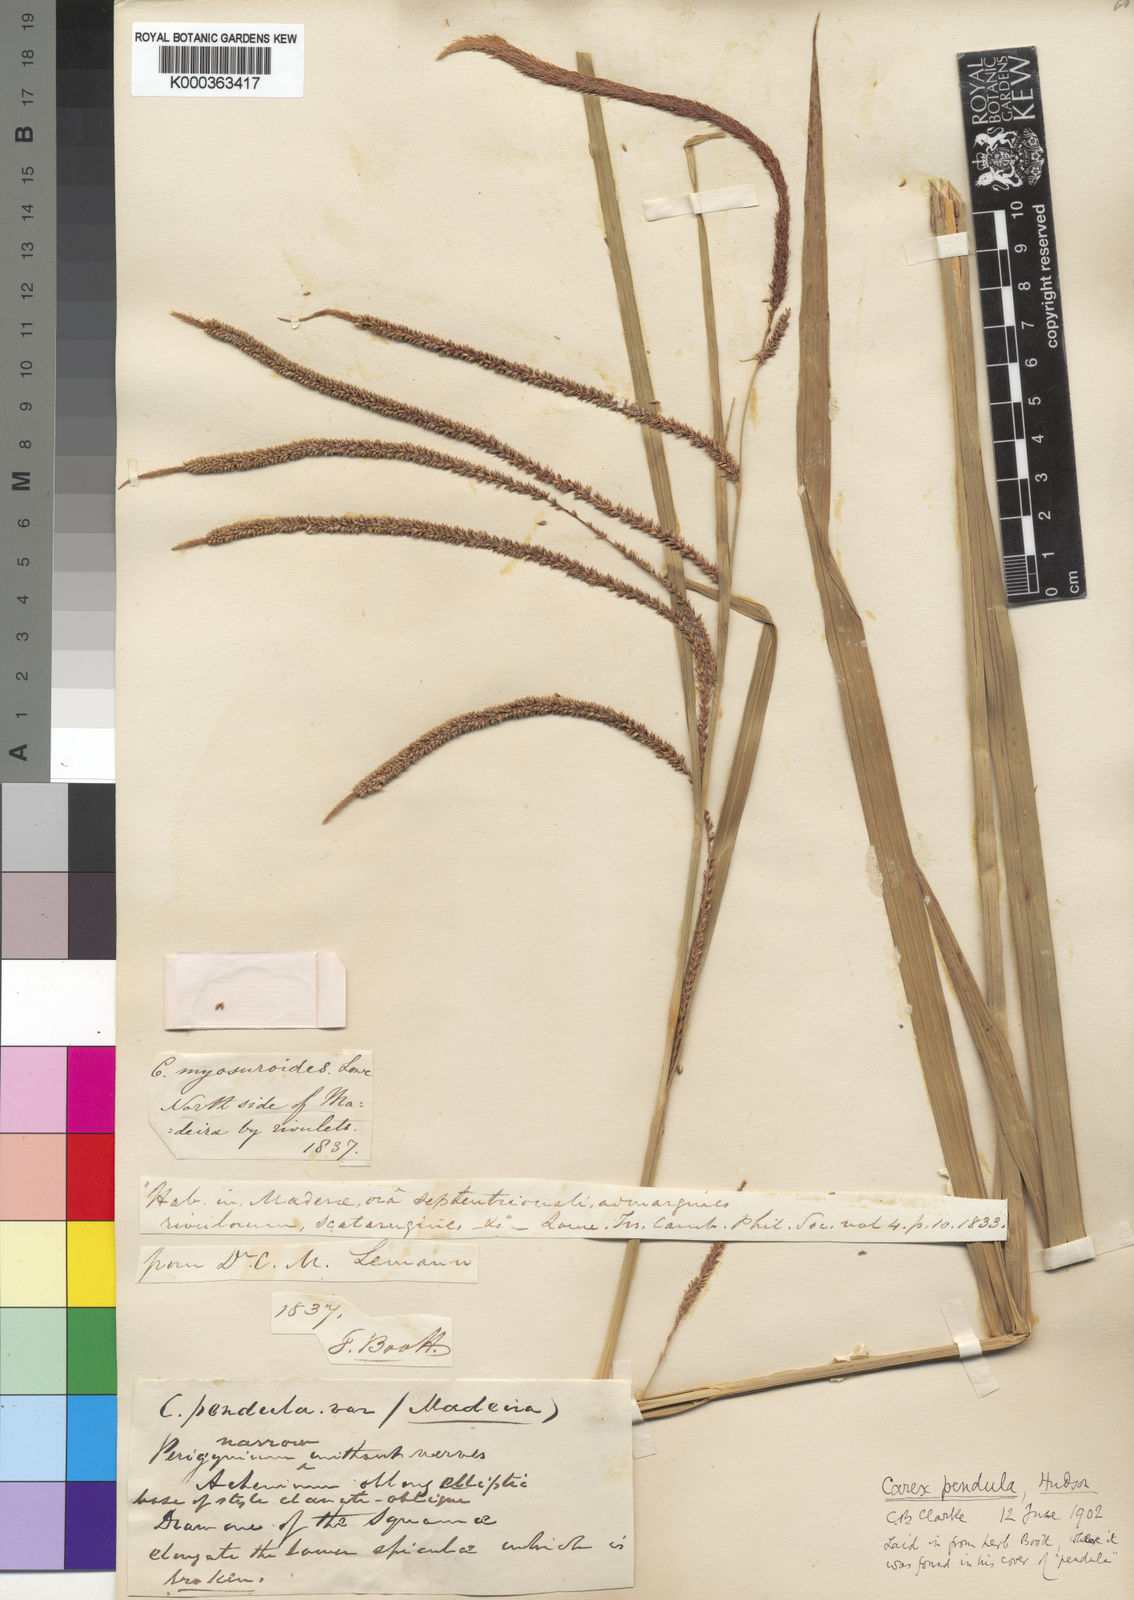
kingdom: Plantae
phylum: Tracheophyta
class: Liliopsida
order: Poales
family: Cyperaceae
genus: Carex
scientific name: Carex pendula
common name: Pendulous sedge
